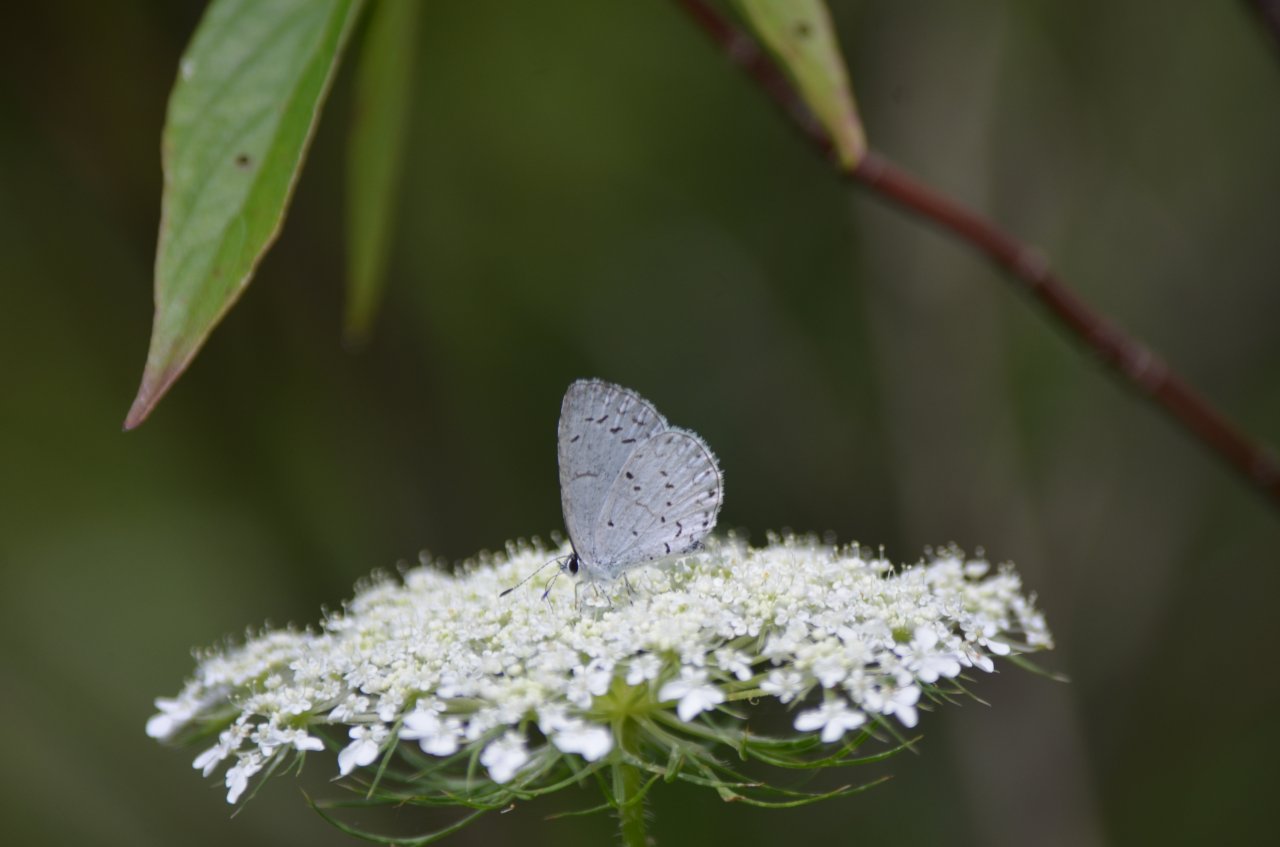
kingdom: Animalia
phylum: Arthropoda
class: Insecta
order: Lepidoptera
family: Lycaenidae
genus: Celastrina
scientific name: Celastrina
